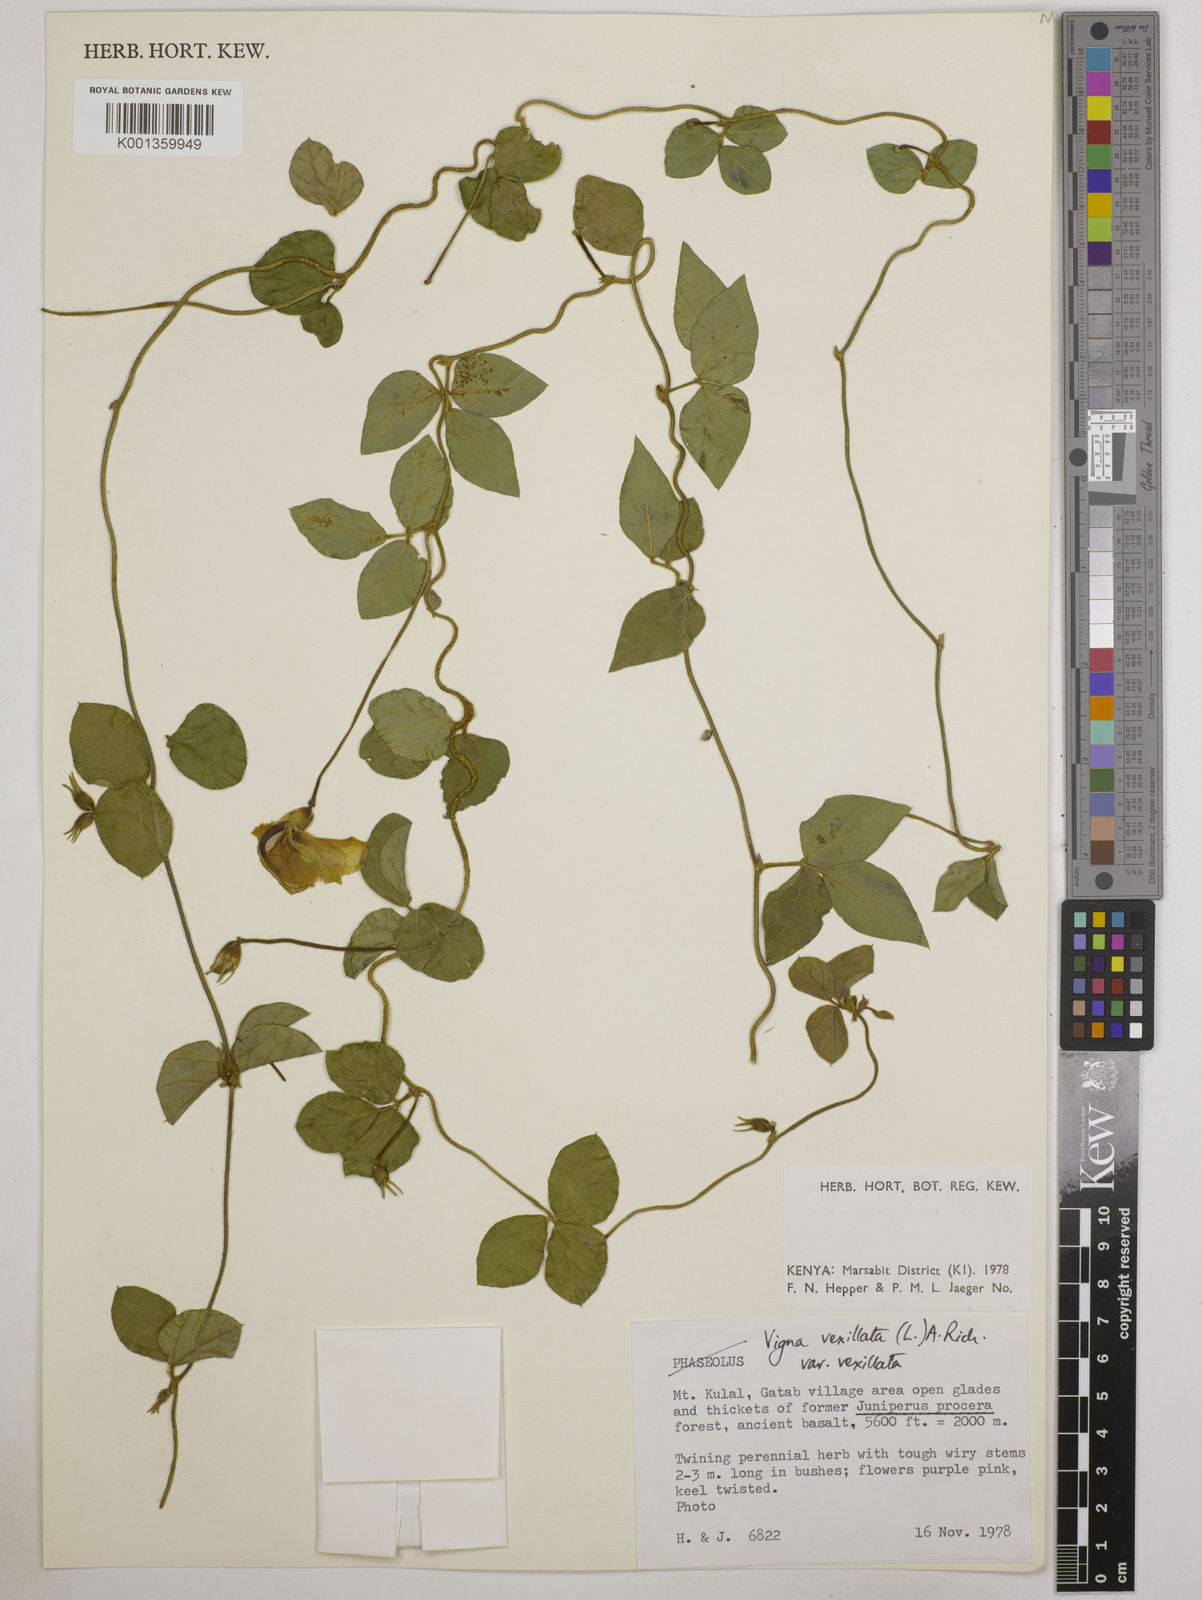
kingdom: Plantae
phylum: Tracheophyta
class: Magnoliopsida
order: Fabales
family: Fabaceae
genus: Vigna
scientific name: Vigna vexillata
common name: Zombi pea
